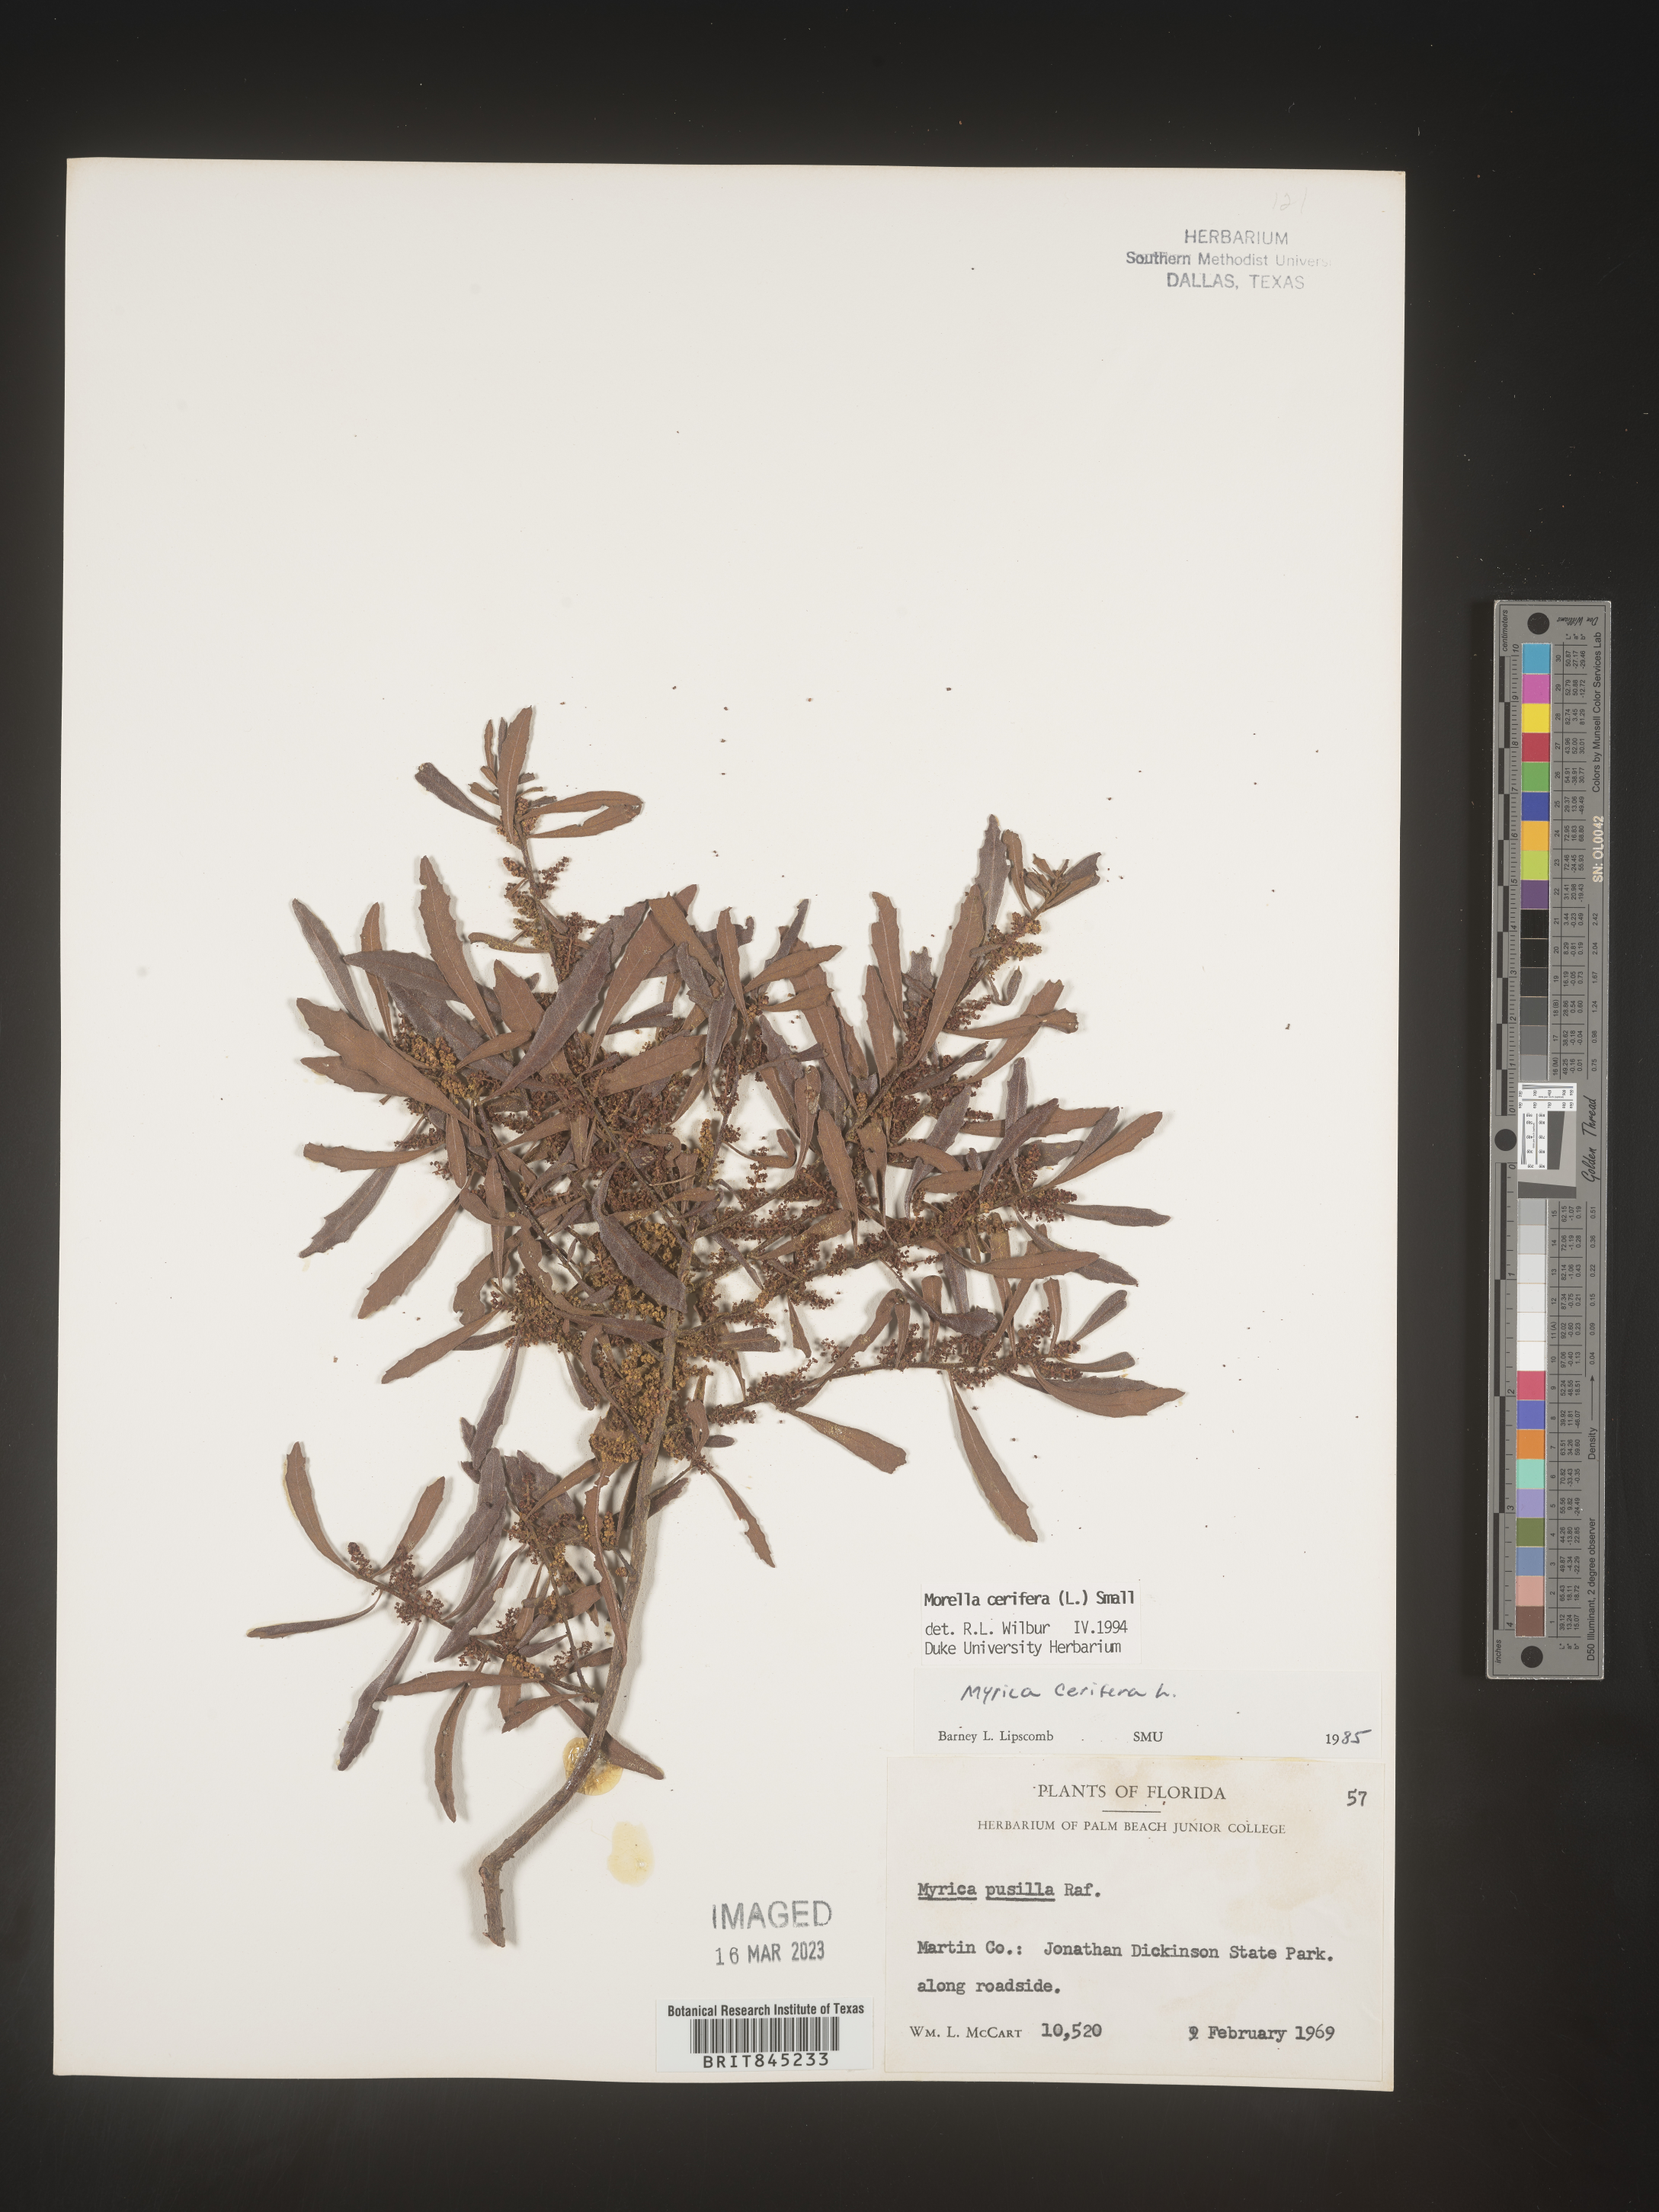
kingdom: Plantae
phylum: Tracheophyta
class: Magnoliopsida
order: Fagales
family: Myricaceae
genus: Morella
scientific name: Morella cerifera
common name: Wax myrtle
